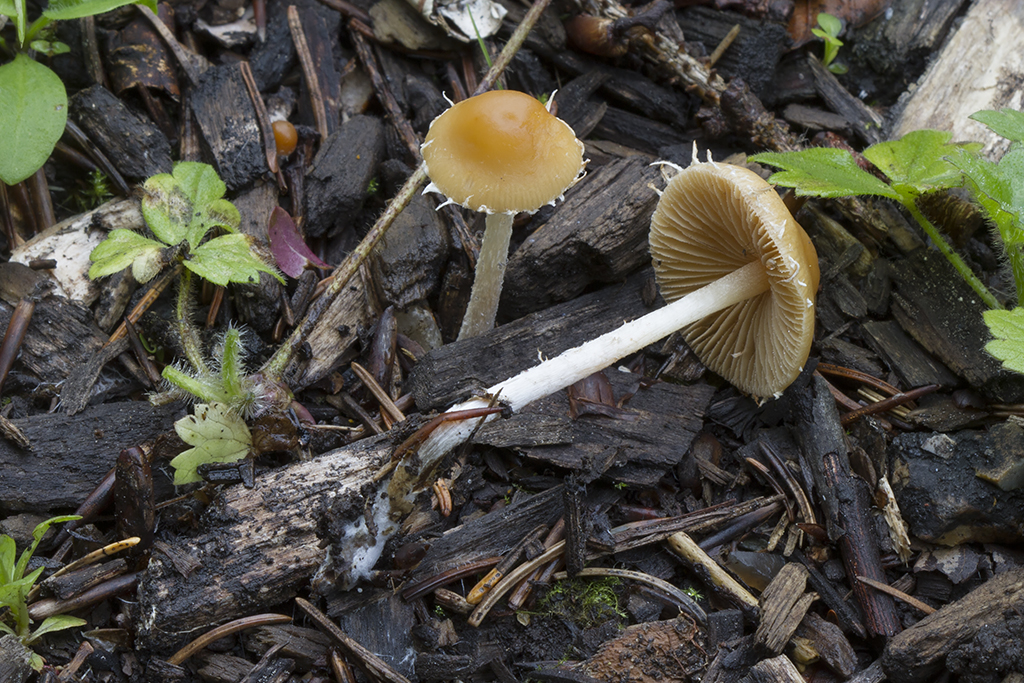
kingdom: Fungi
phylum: Basidiomycota
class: Agaricomycetes
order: Agaricales
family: Bolbitiaceae
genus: Conocybe
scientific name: Conocybe velata
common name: tandet dansehat
